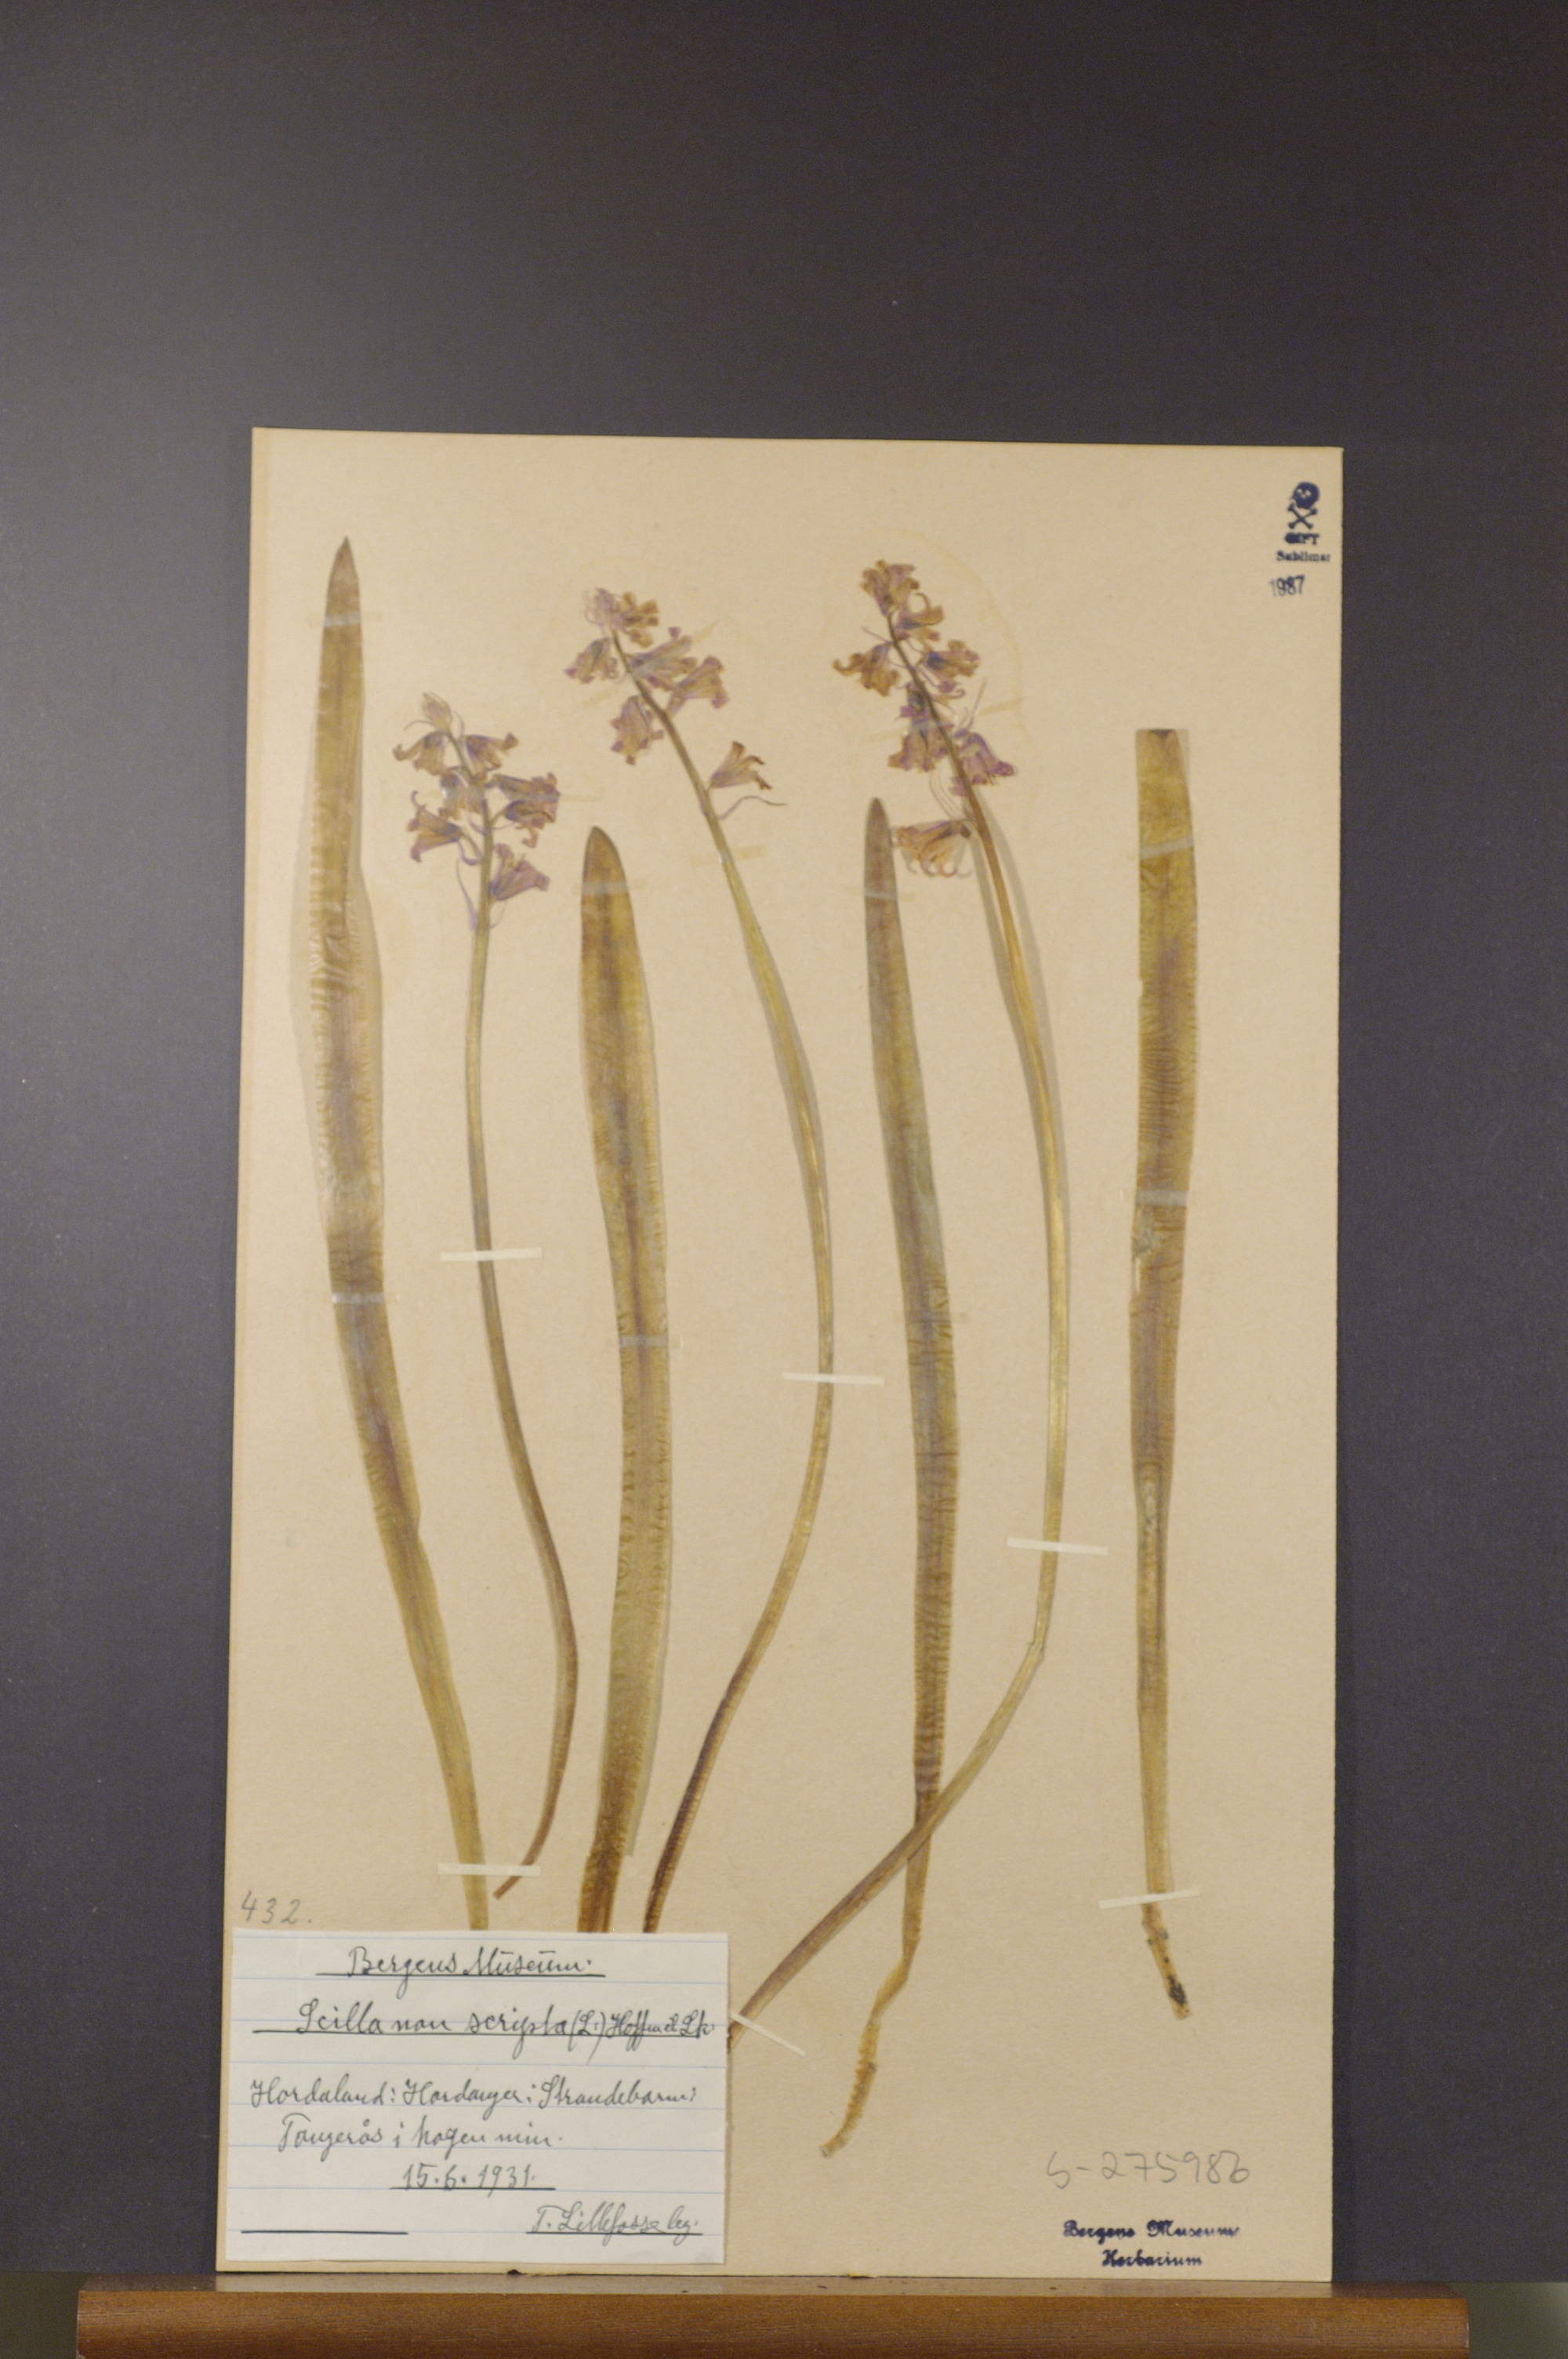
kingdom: Plantae
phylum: Tracheophyta
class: Liliopsida
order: Asparagales
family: Asparagaceae
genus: Hyacinthoides
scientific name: Hyacinthoides non-scripta
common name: Bluebell
